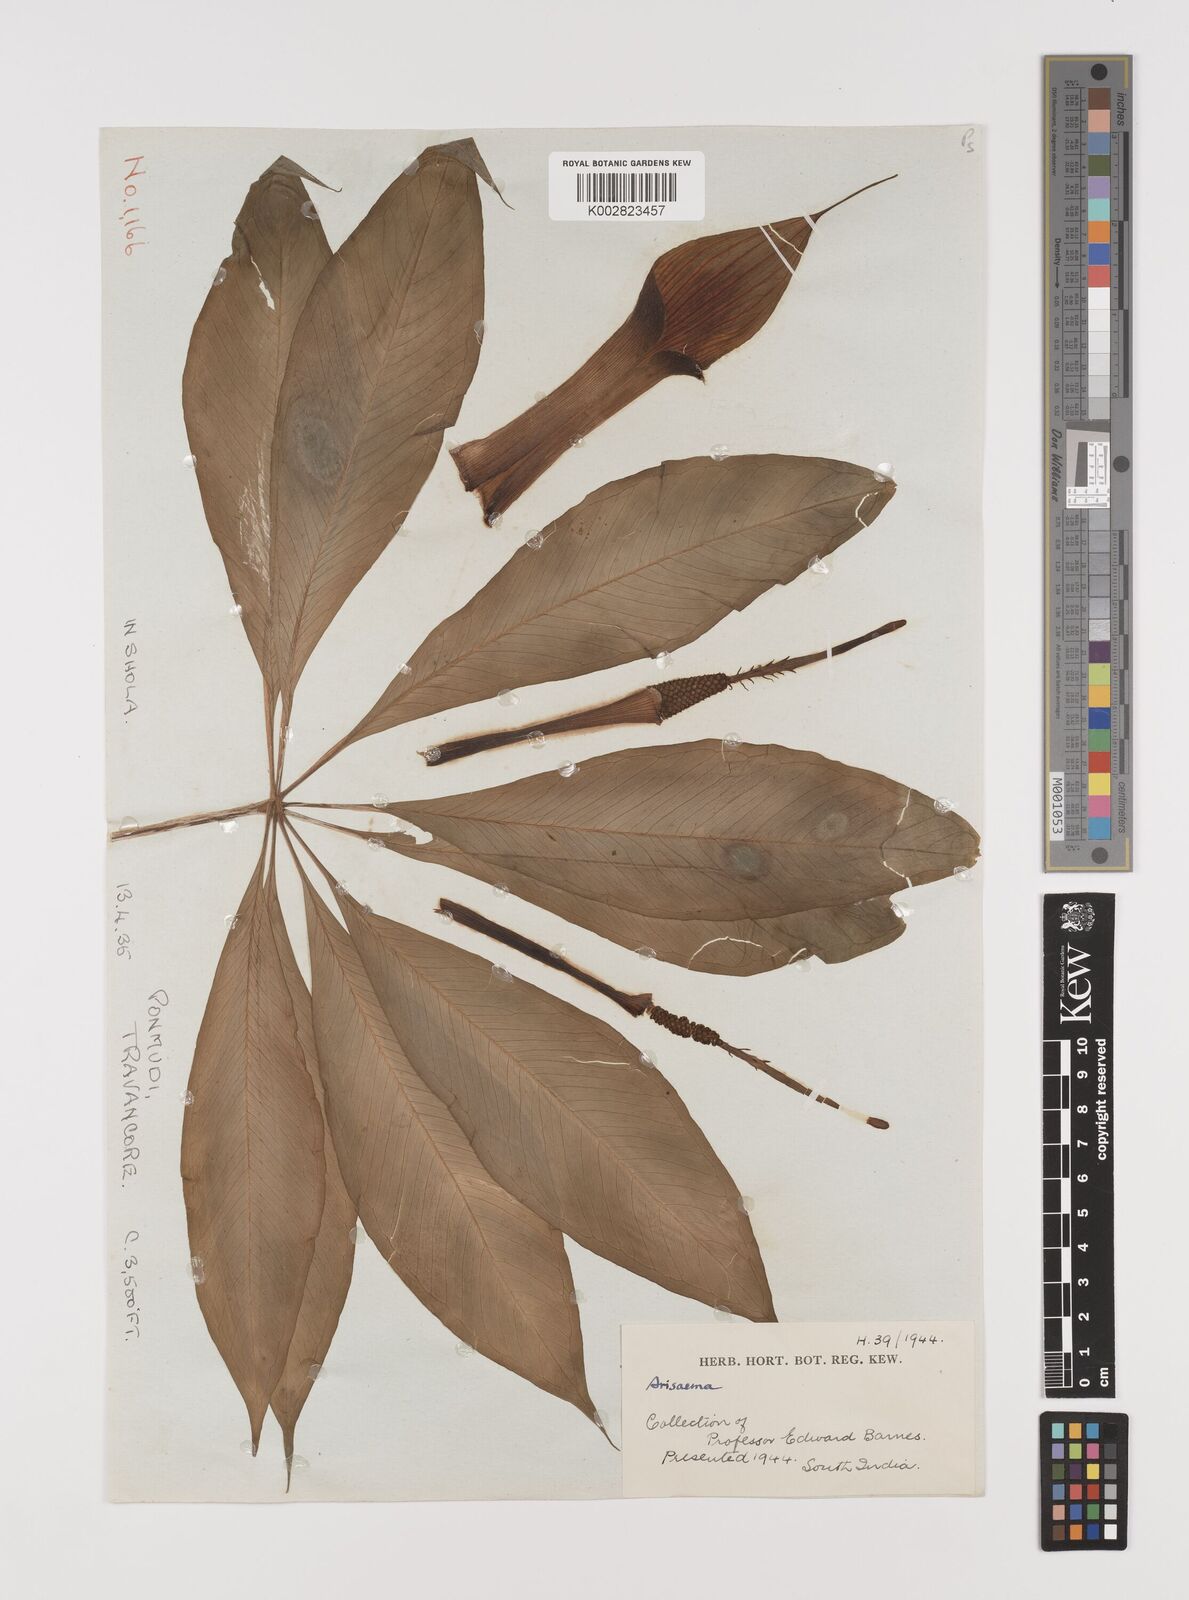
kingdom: Plantae
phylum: Tracheophyta
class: Liliopsida
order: Alismatales
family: Araceae
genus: Arisaema
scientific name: Arisaema
